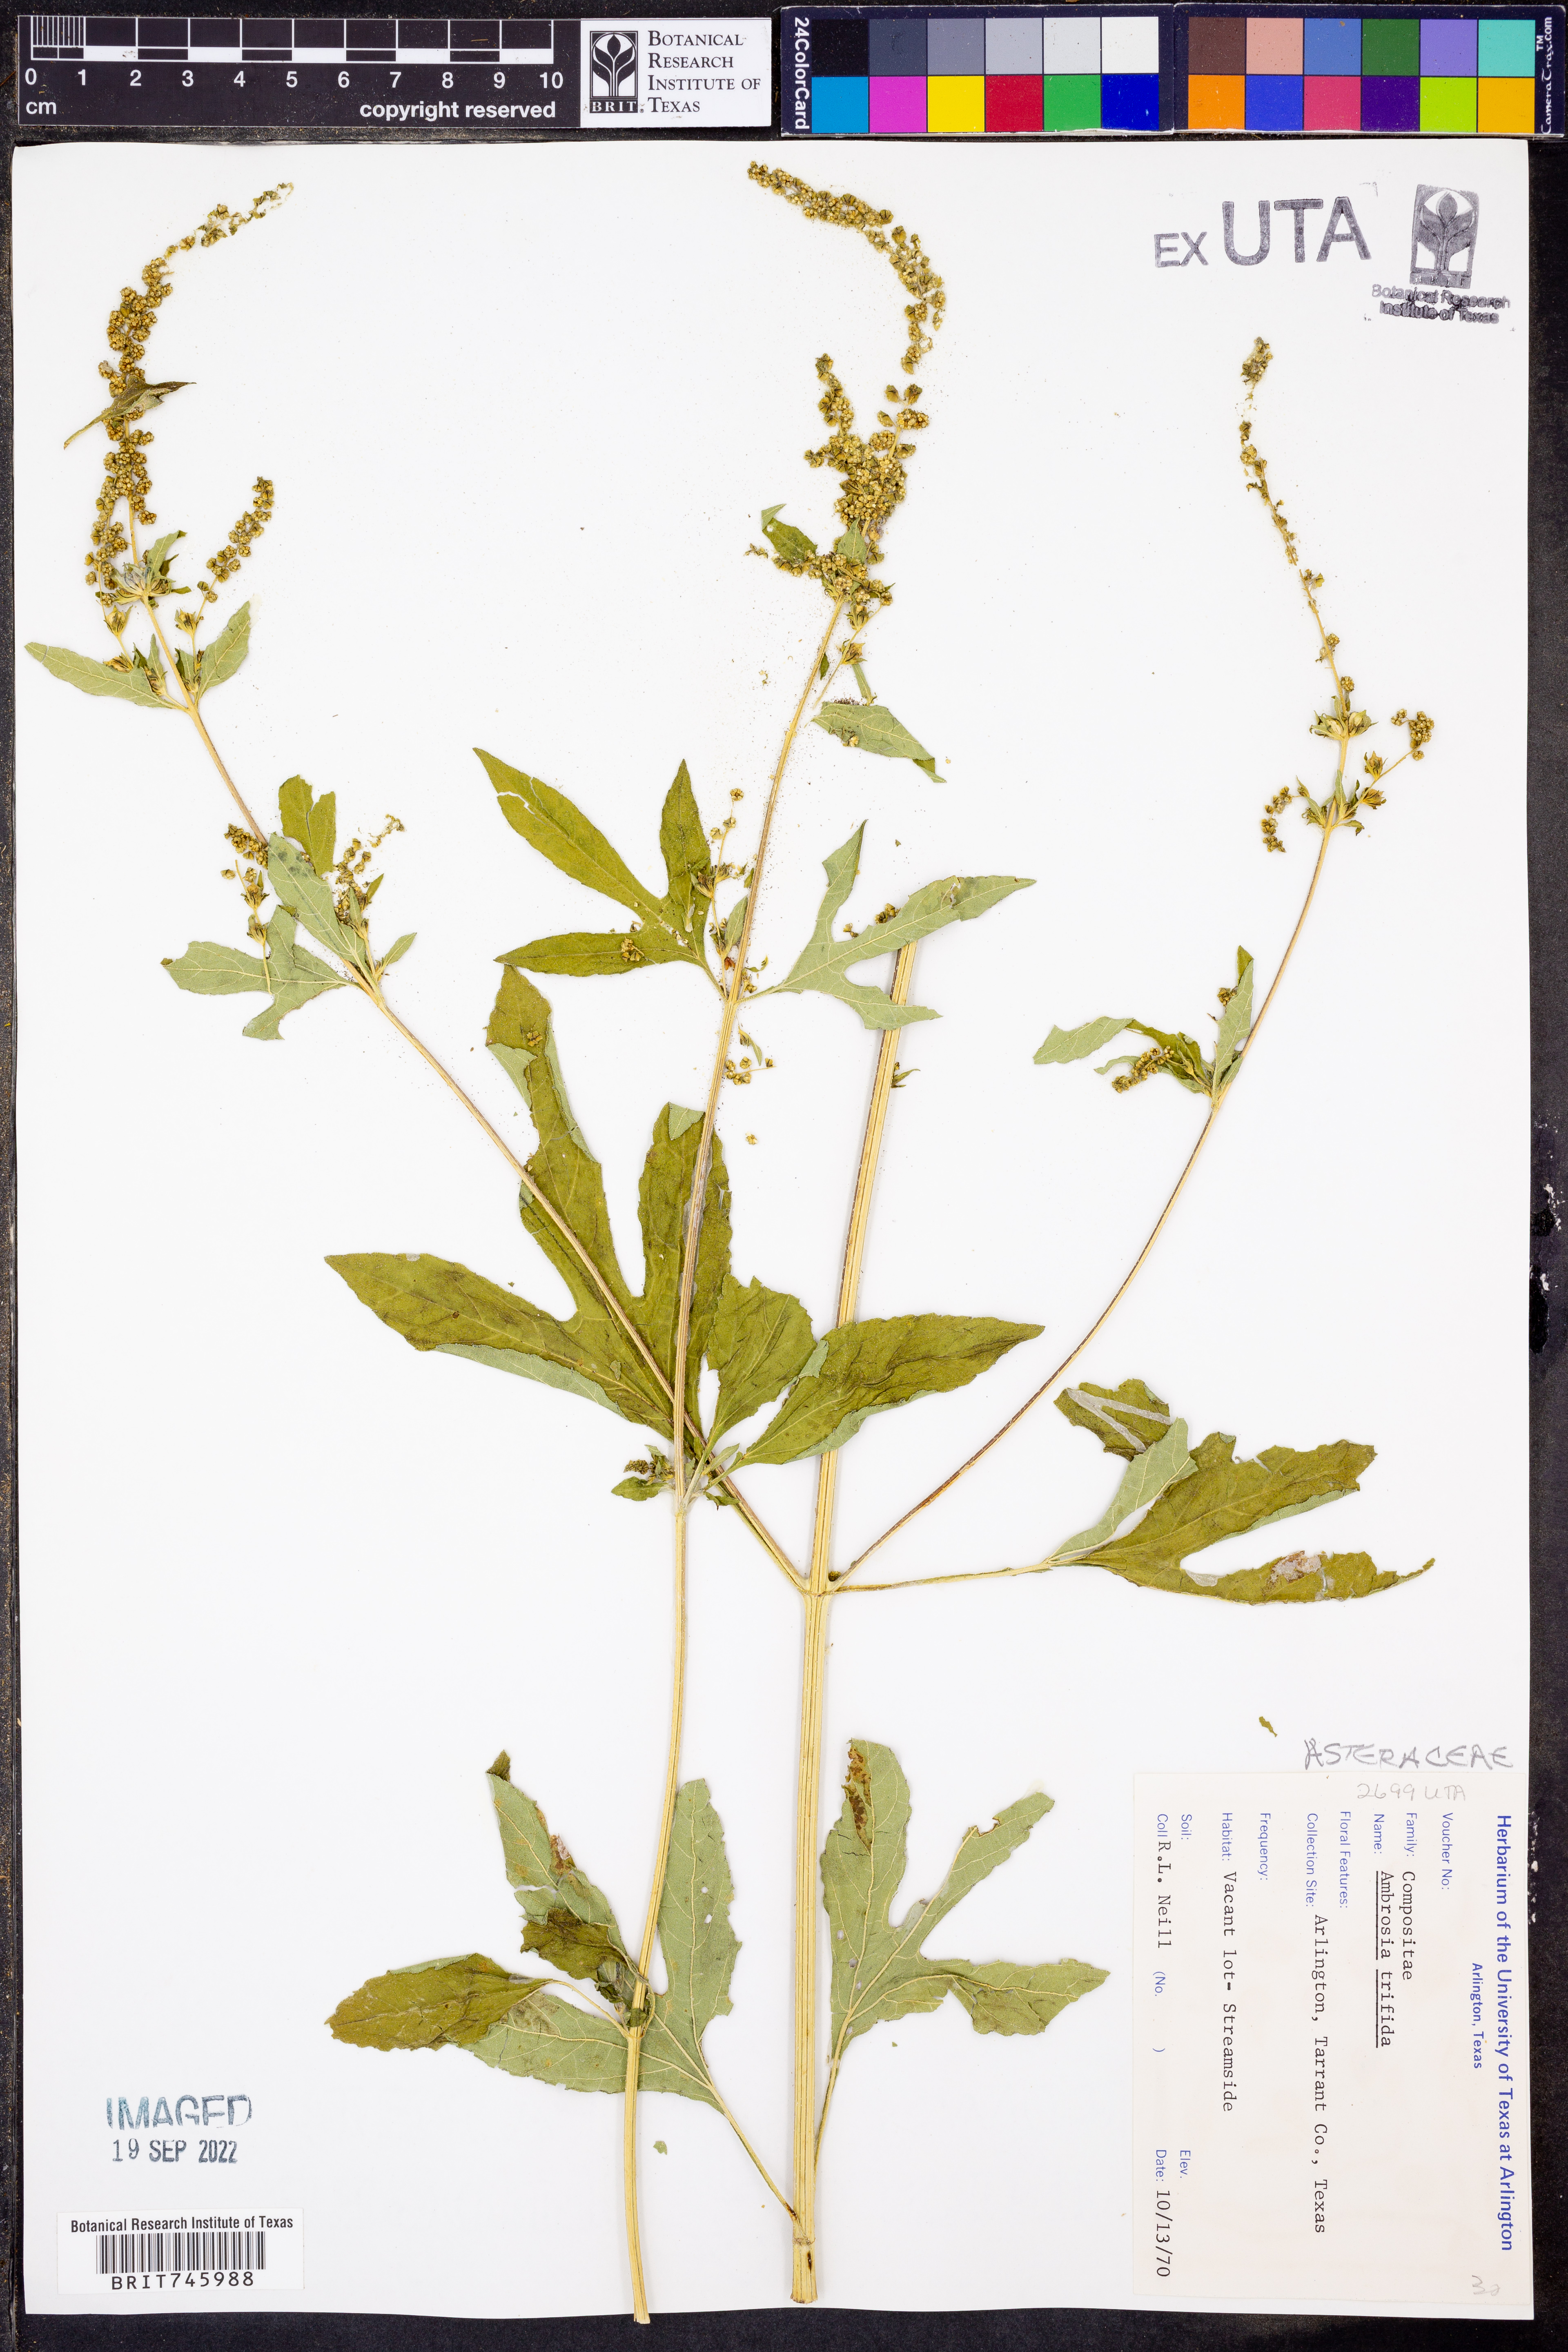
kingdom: Plantae
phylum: Tracheophyta
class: Magnoliopsida
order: Asterales
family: Asteraceae
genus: Ambrosia
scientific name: Ambrosia trifida
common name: Giant ragweed
